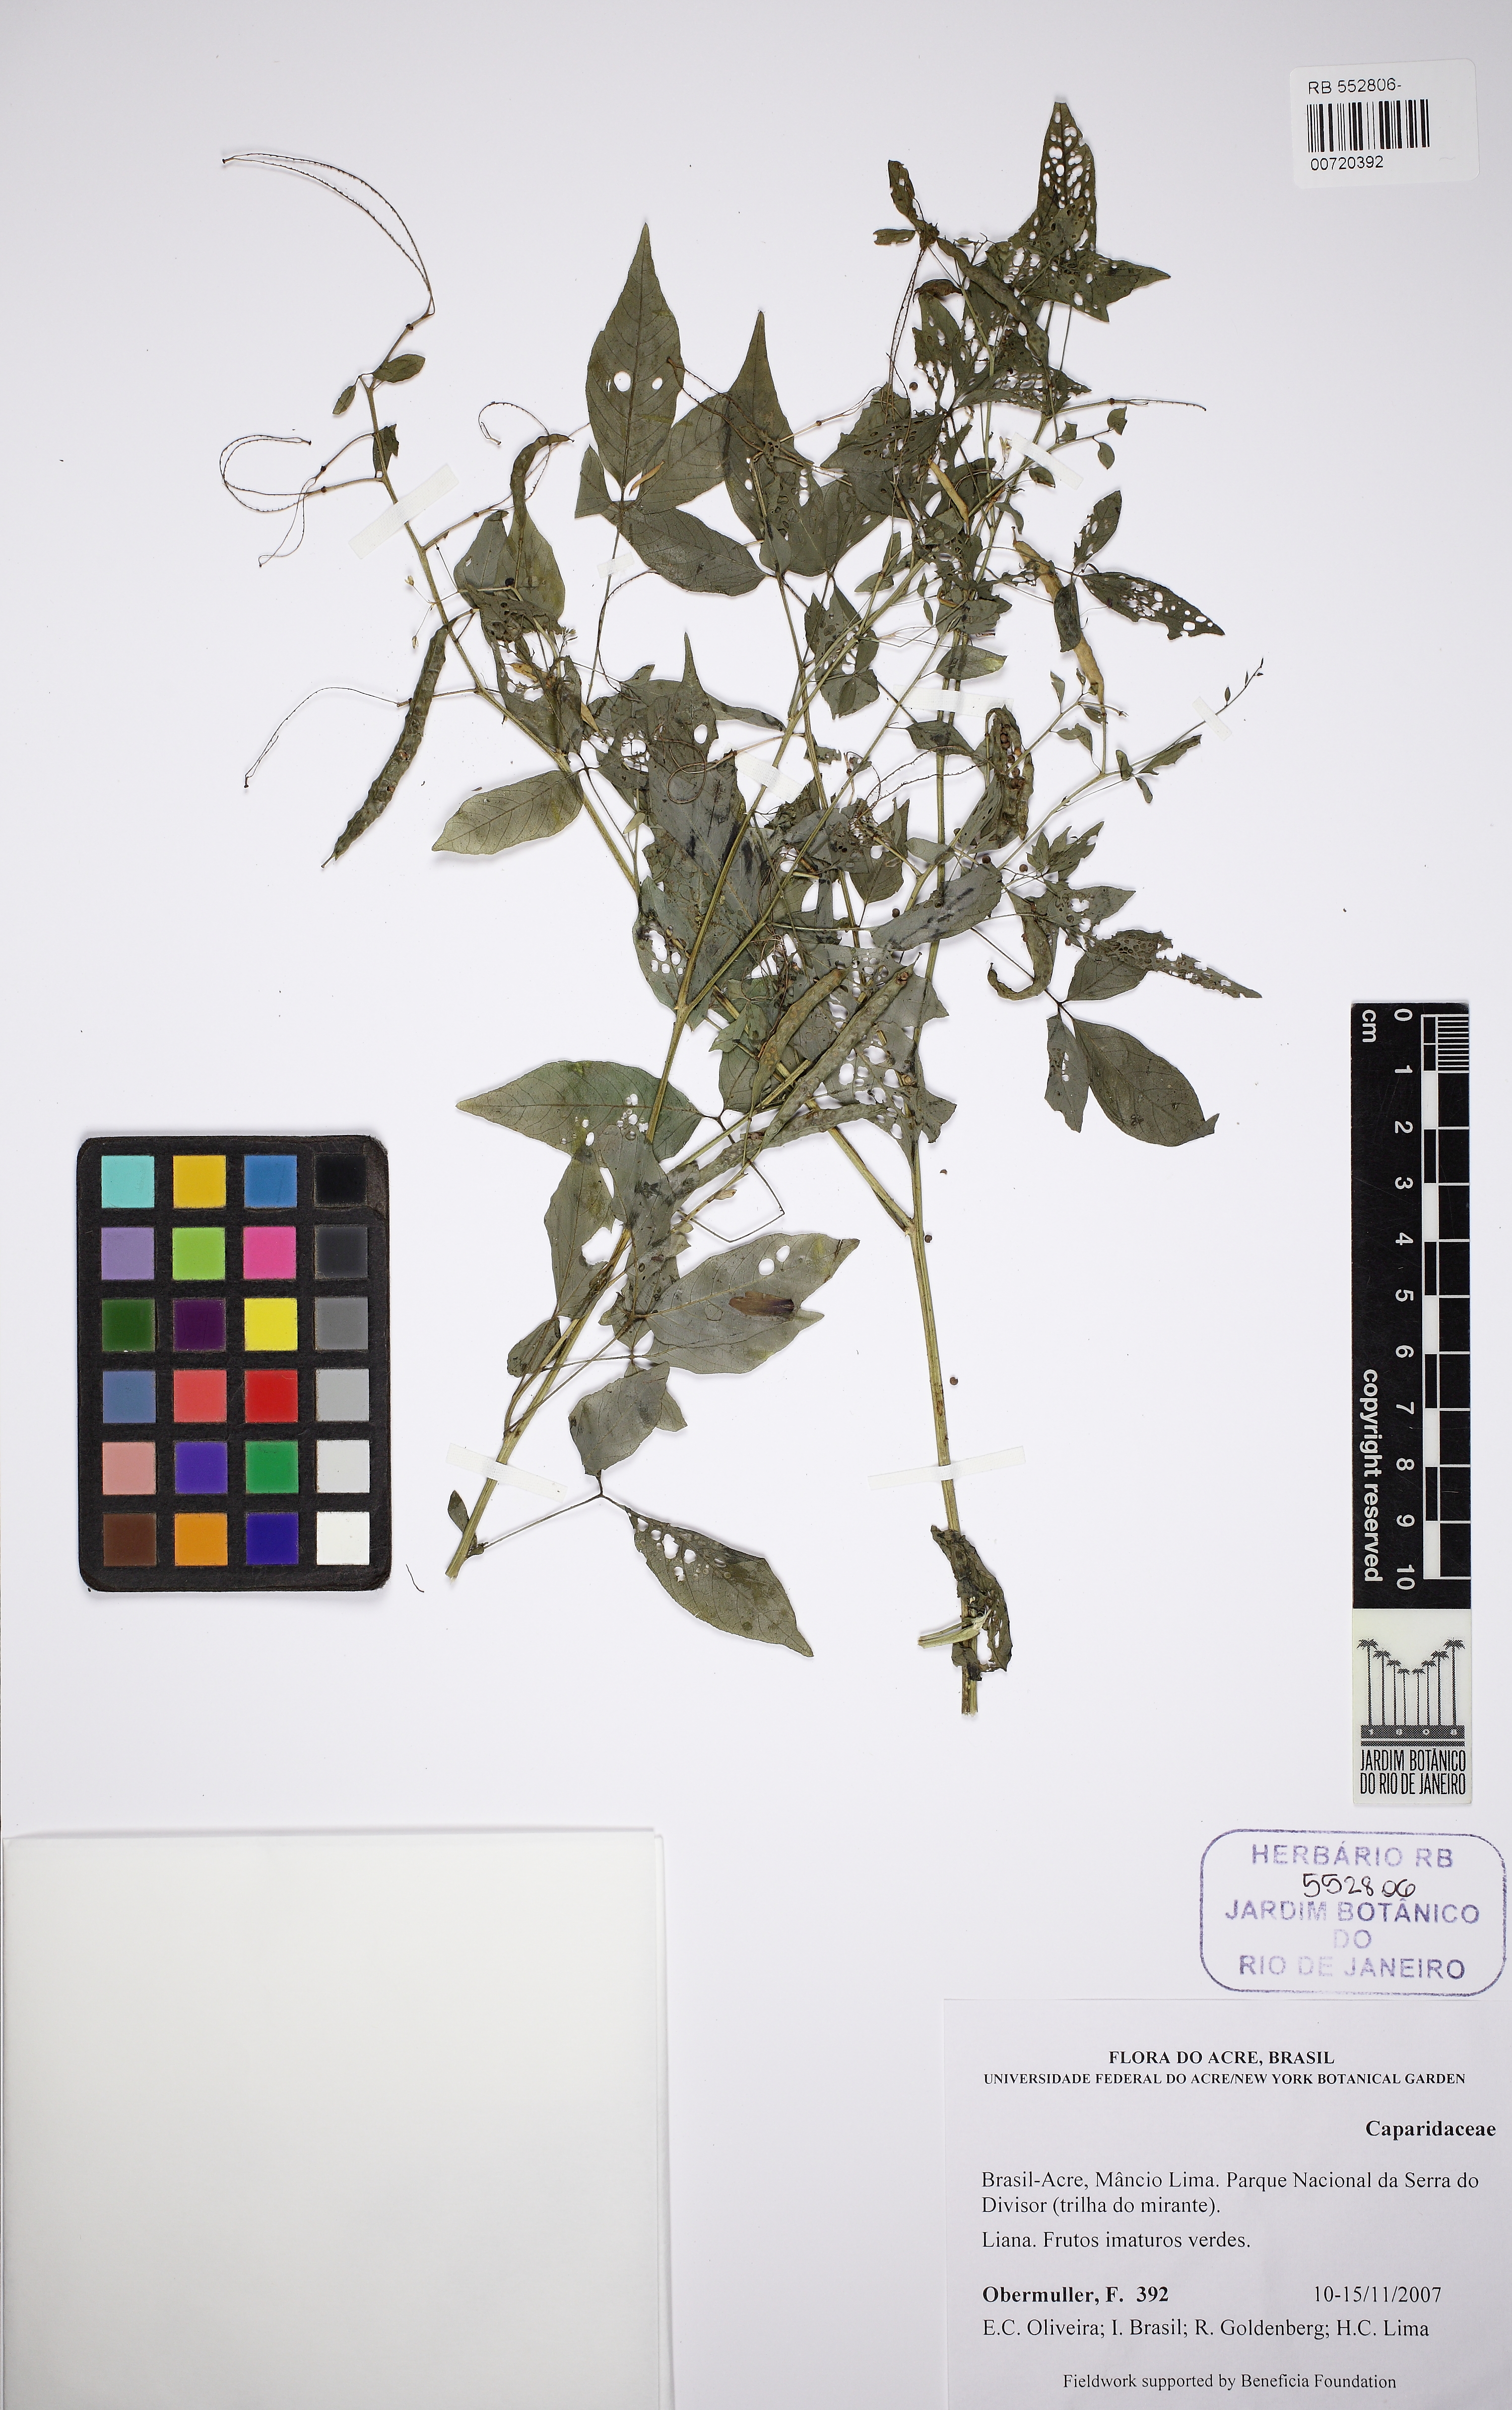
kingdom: Plantae
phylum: Tracheophyta
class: Magnoliopsida
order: Brassicales
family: Cleomaceae
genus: Tarenaya
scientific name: Tarenaya parviflora
